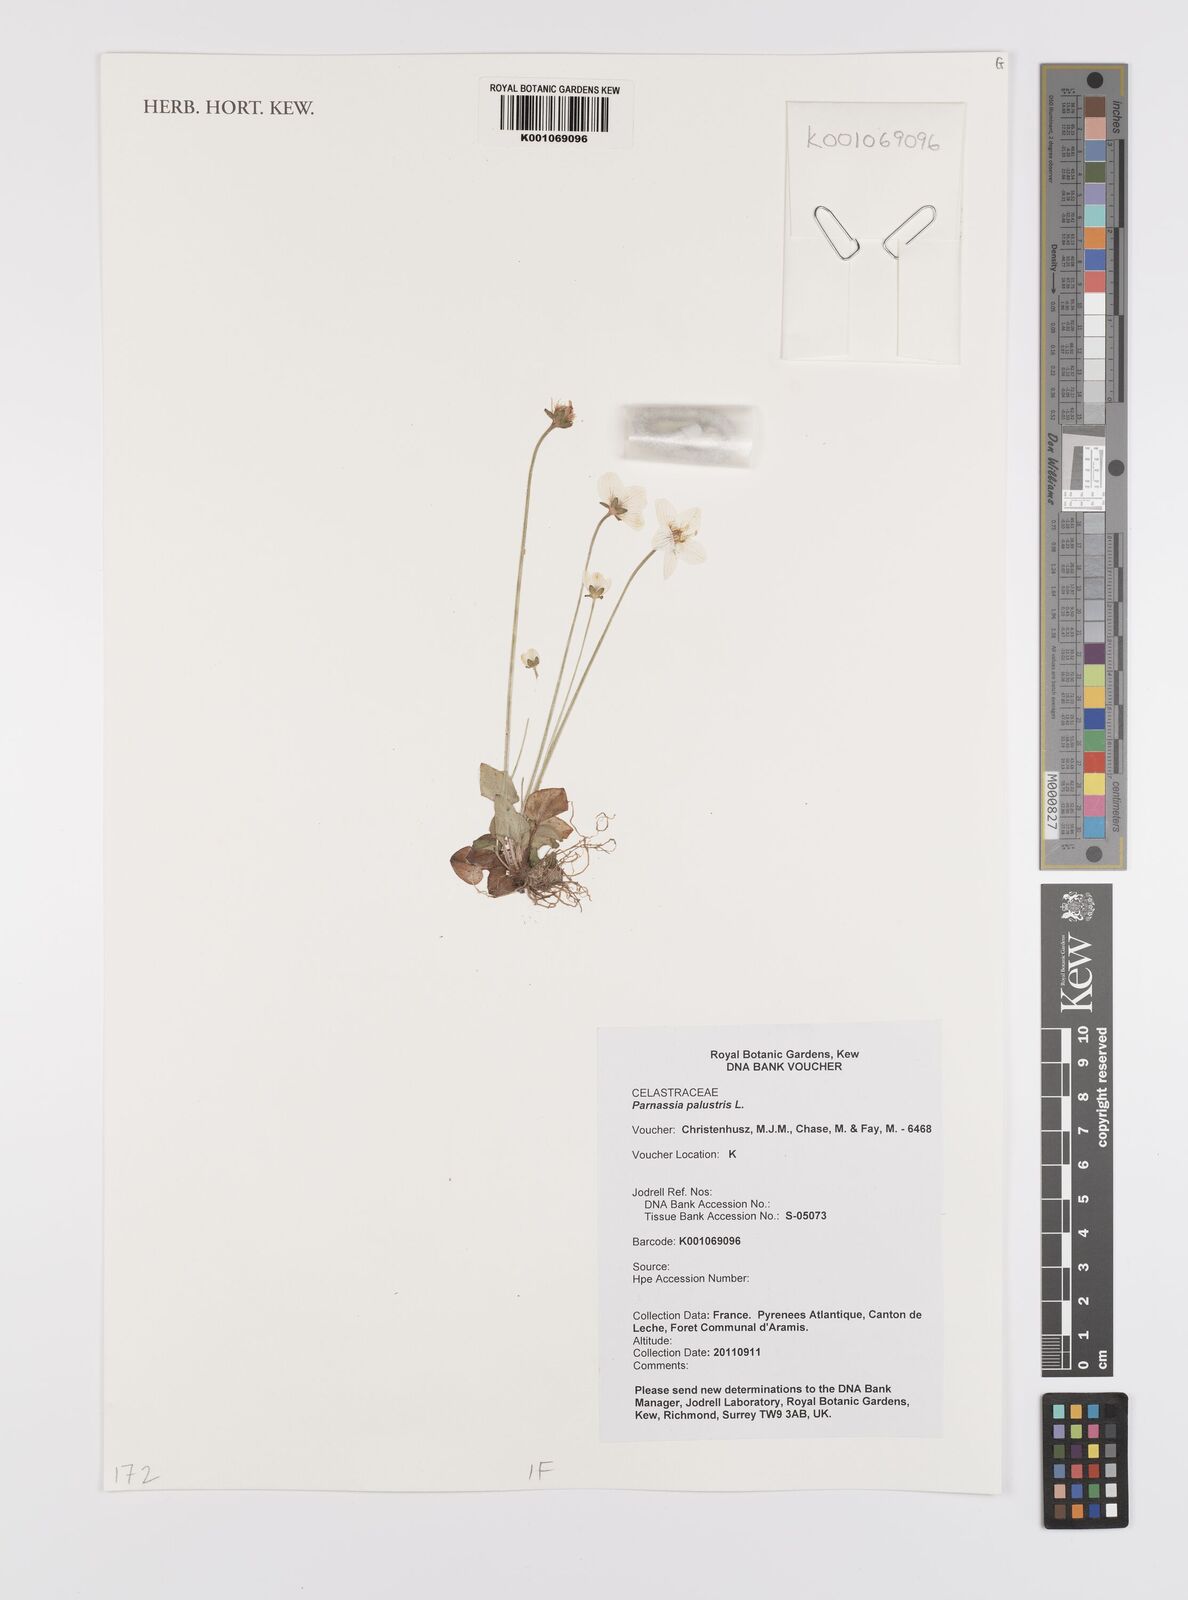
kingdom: Plantae
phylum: Tracheophyta
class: Magnoliopsida
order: Celastrales
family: Parnassiaceae
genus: Parnassia
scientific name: Parnassia palustris
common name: Grass-of-parnassus
